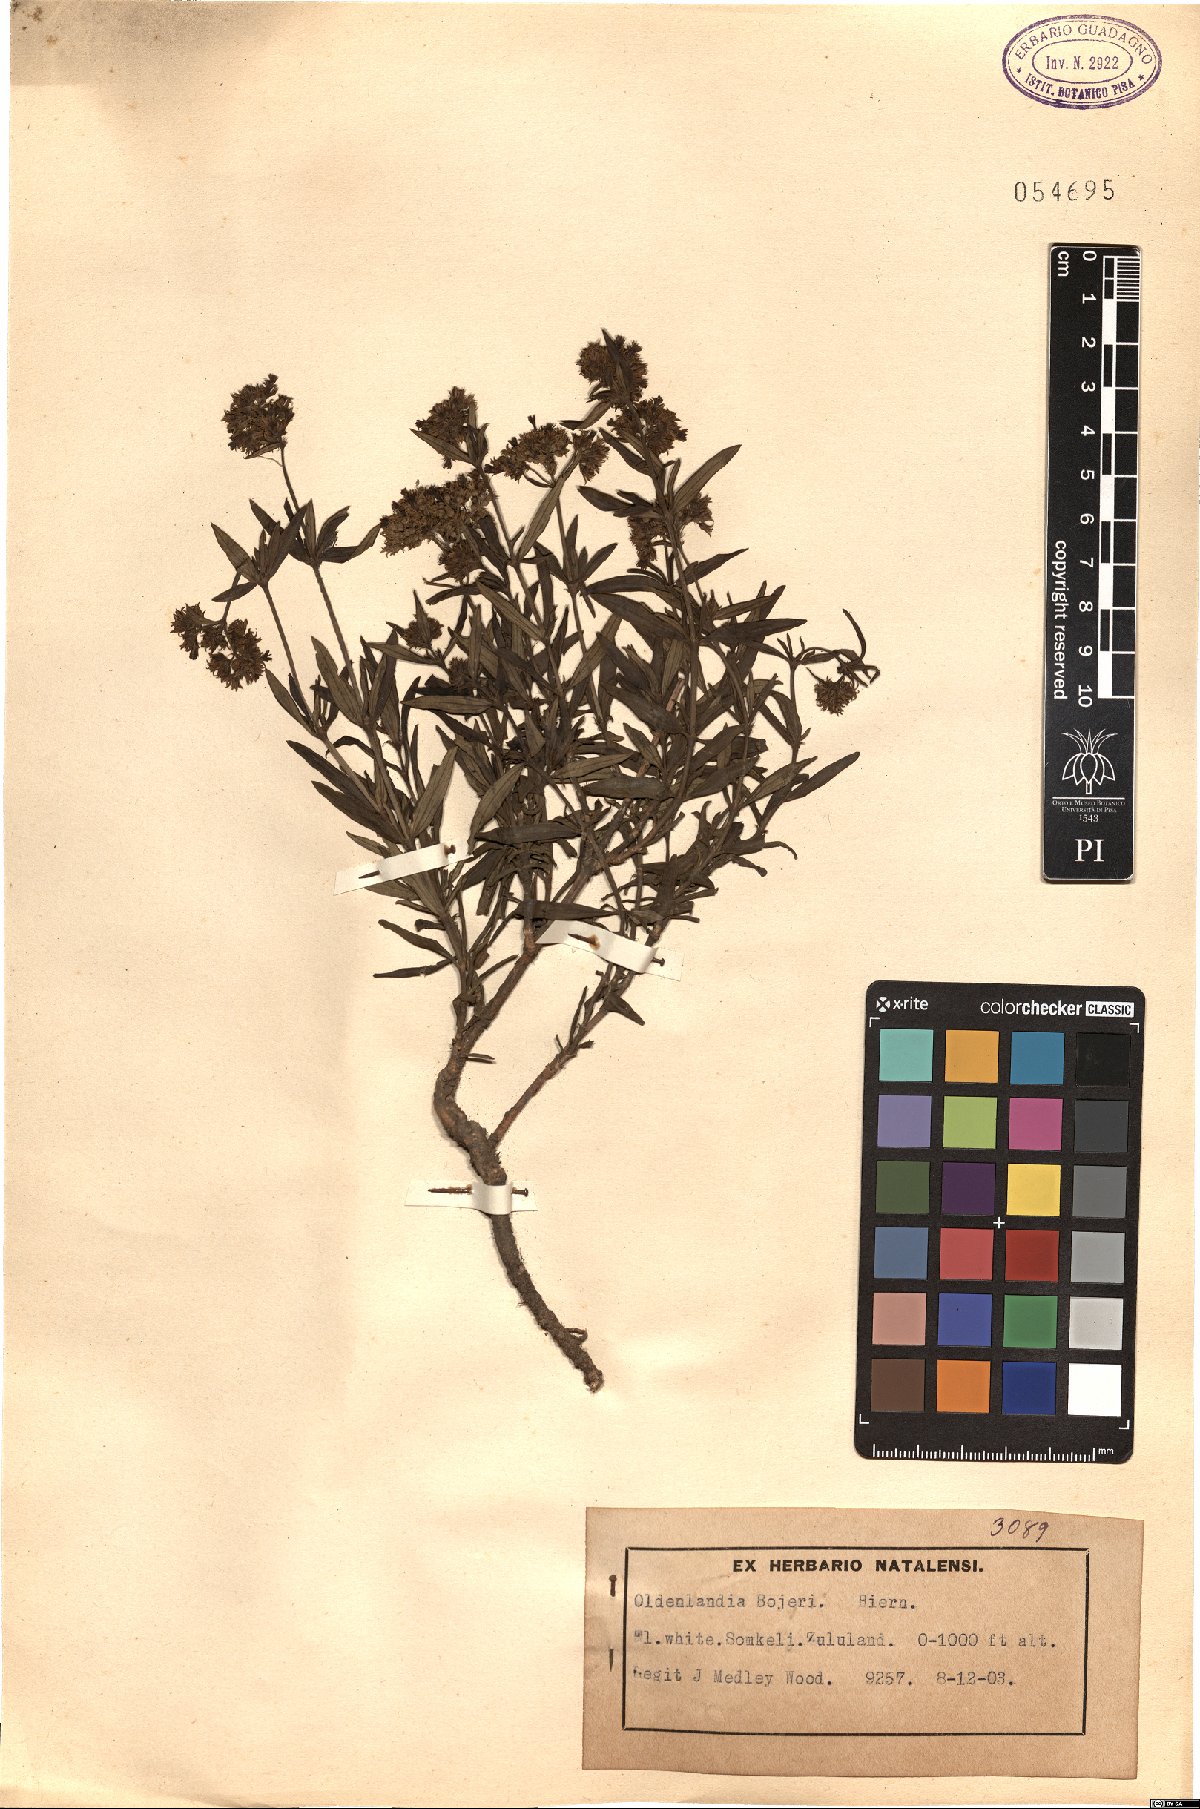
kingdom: Plantae
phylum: Tracheophyta
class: Magnoliopsida
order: Gentianales
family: Rubiaceae
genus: Agathisanthemum
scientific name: Agathisanthemum bojeri
